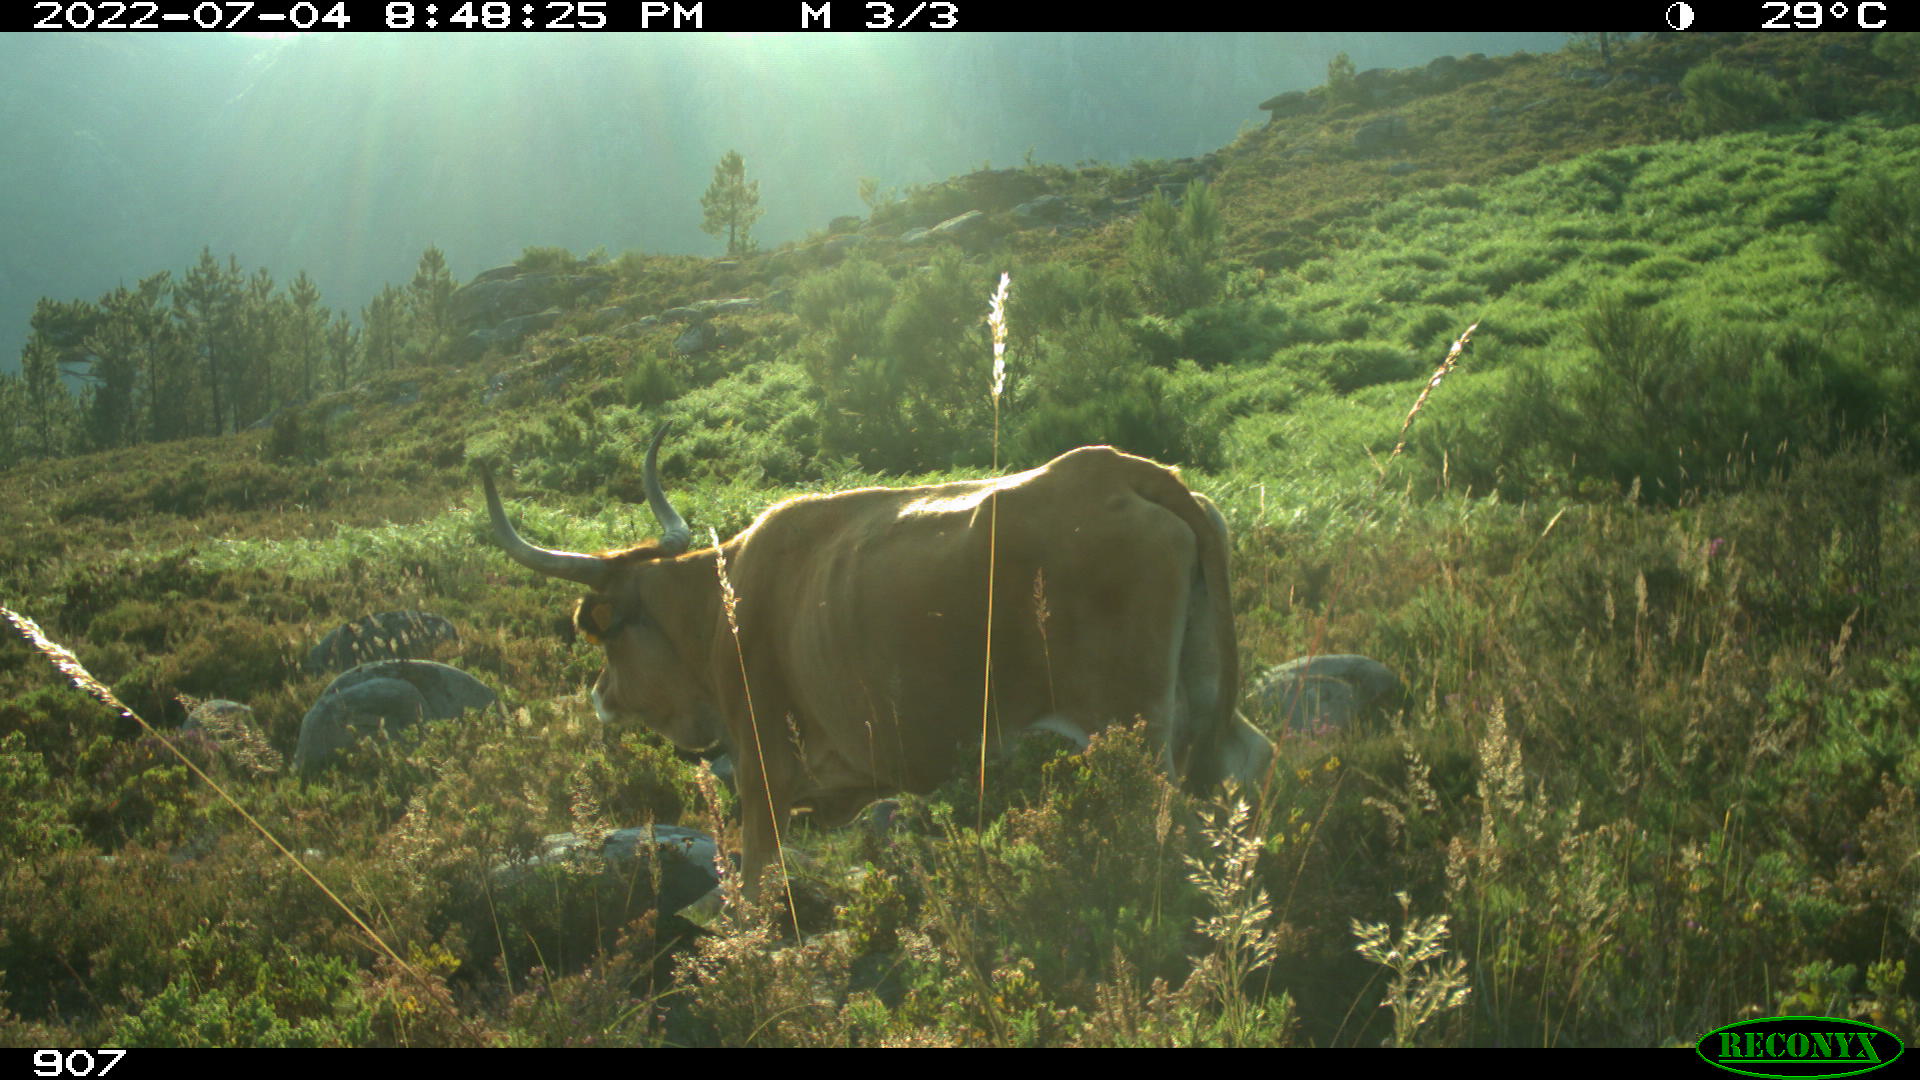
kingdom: Animalia
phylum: Chordata
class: Mammalia
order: Artiodactyla
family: Bovidae
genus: Bos
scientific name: Bos taurus
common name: Domesticated cattle
